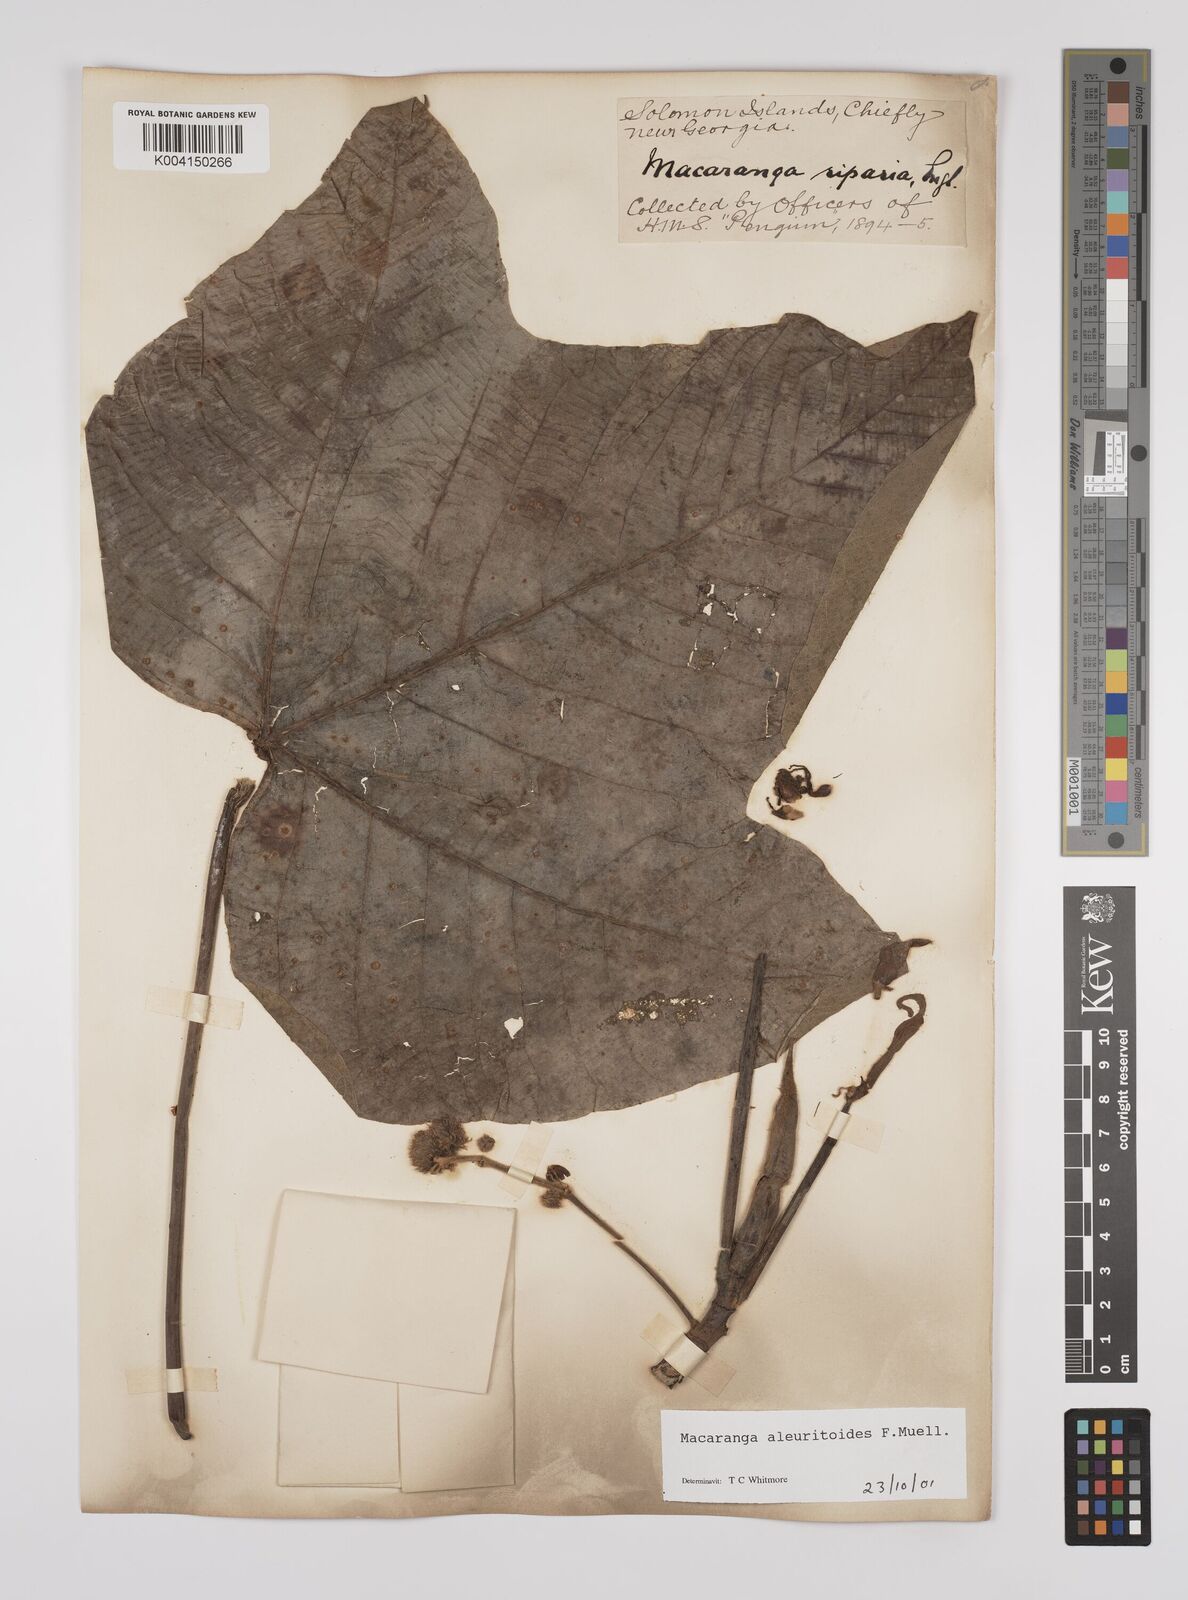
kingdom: Plantae
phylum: Tracheophyta
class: Magnoliopsida
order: Malpighiales
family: Euphorbiaceae
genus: Macaranga
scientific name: Macaranga aleuritoides
